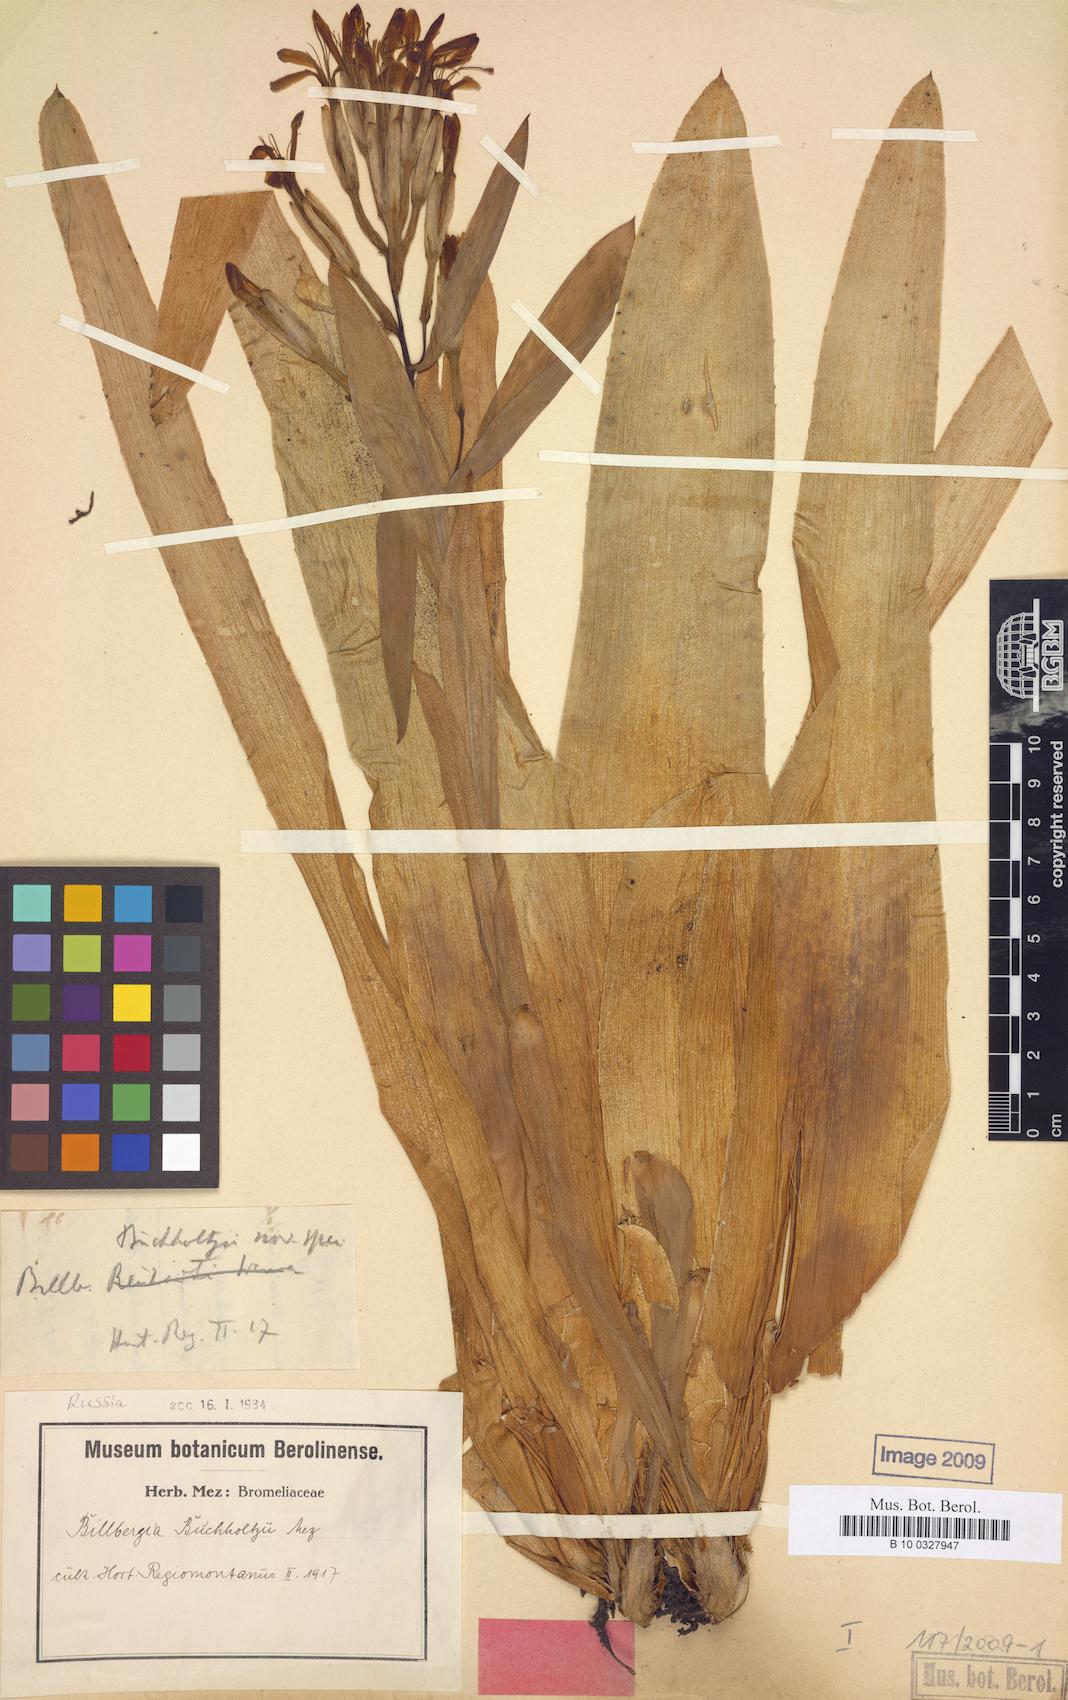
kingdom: Plantae
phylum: Tracheophyta
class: Liliopsida
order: Poales
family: Bromeliaceae
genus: Billbergia
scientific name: Billbergia buchholtzii
